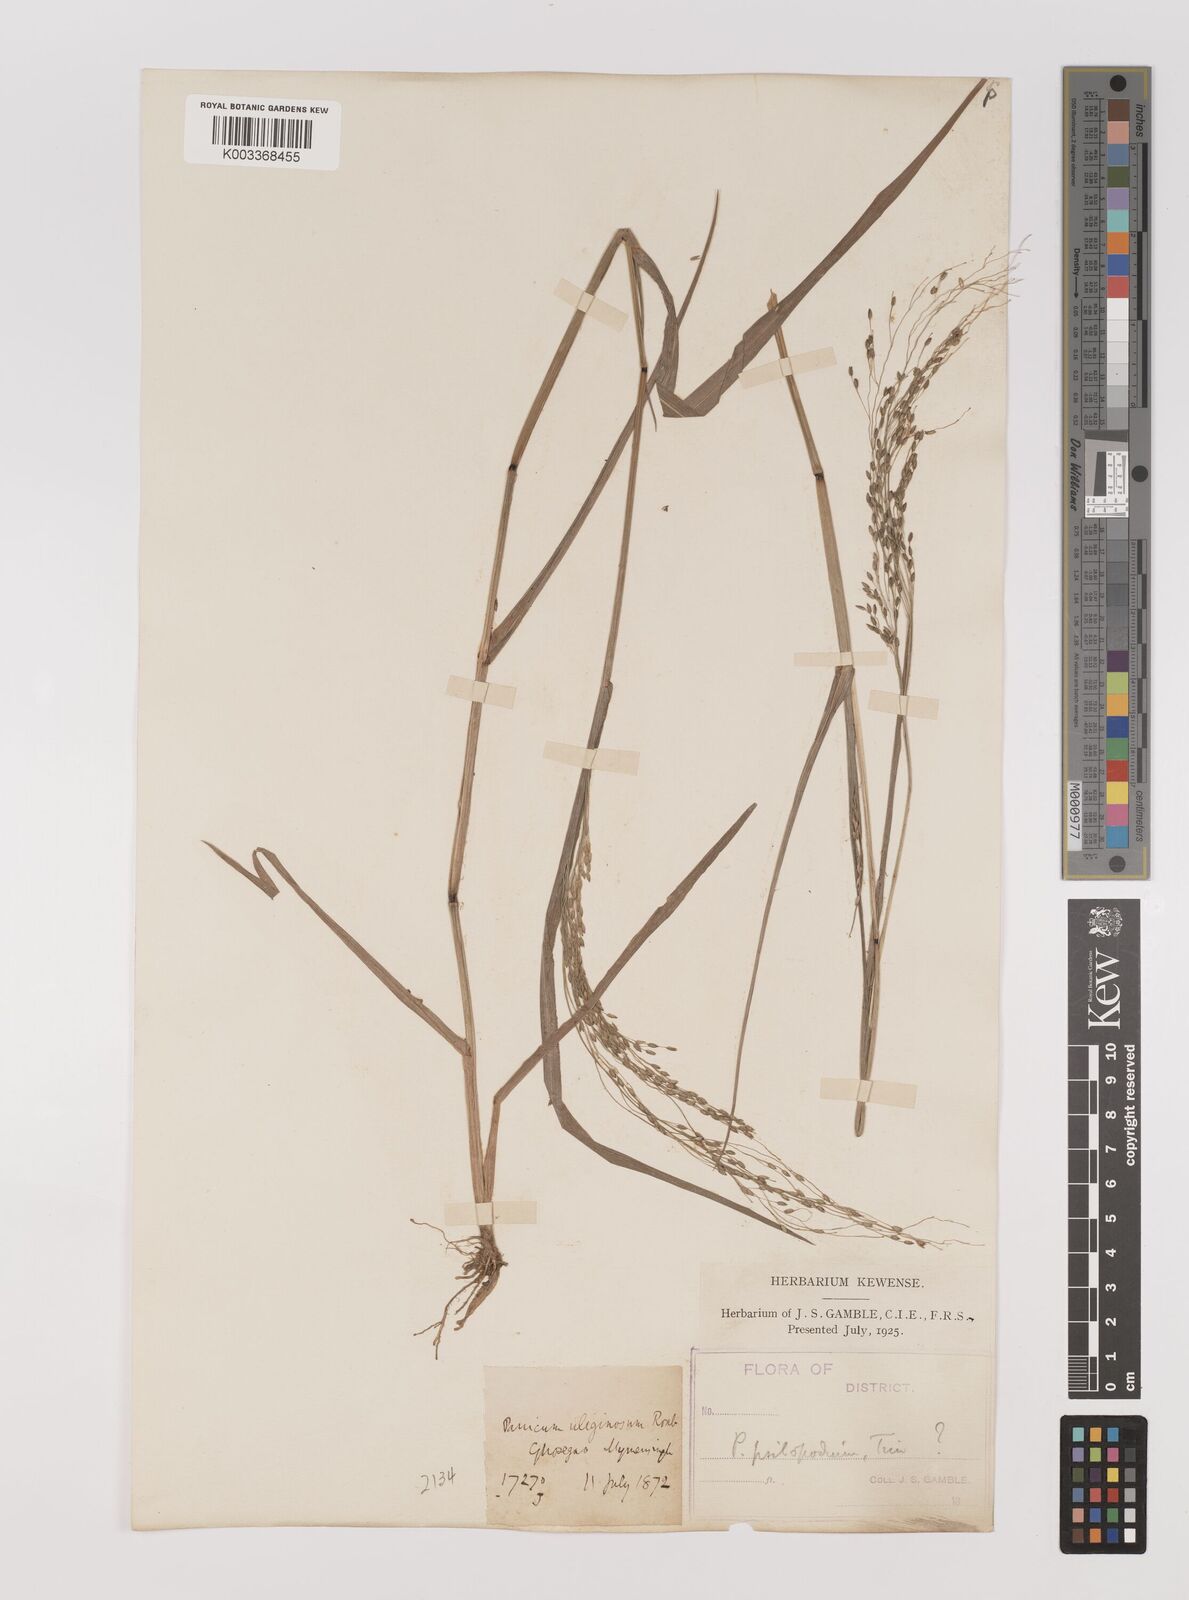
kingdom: Plantae
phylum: Tracheophyta
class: Liliopsida
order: Poales
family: Poaceae
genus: Panicum
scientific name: Panicum sumatrense
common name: Little millet
